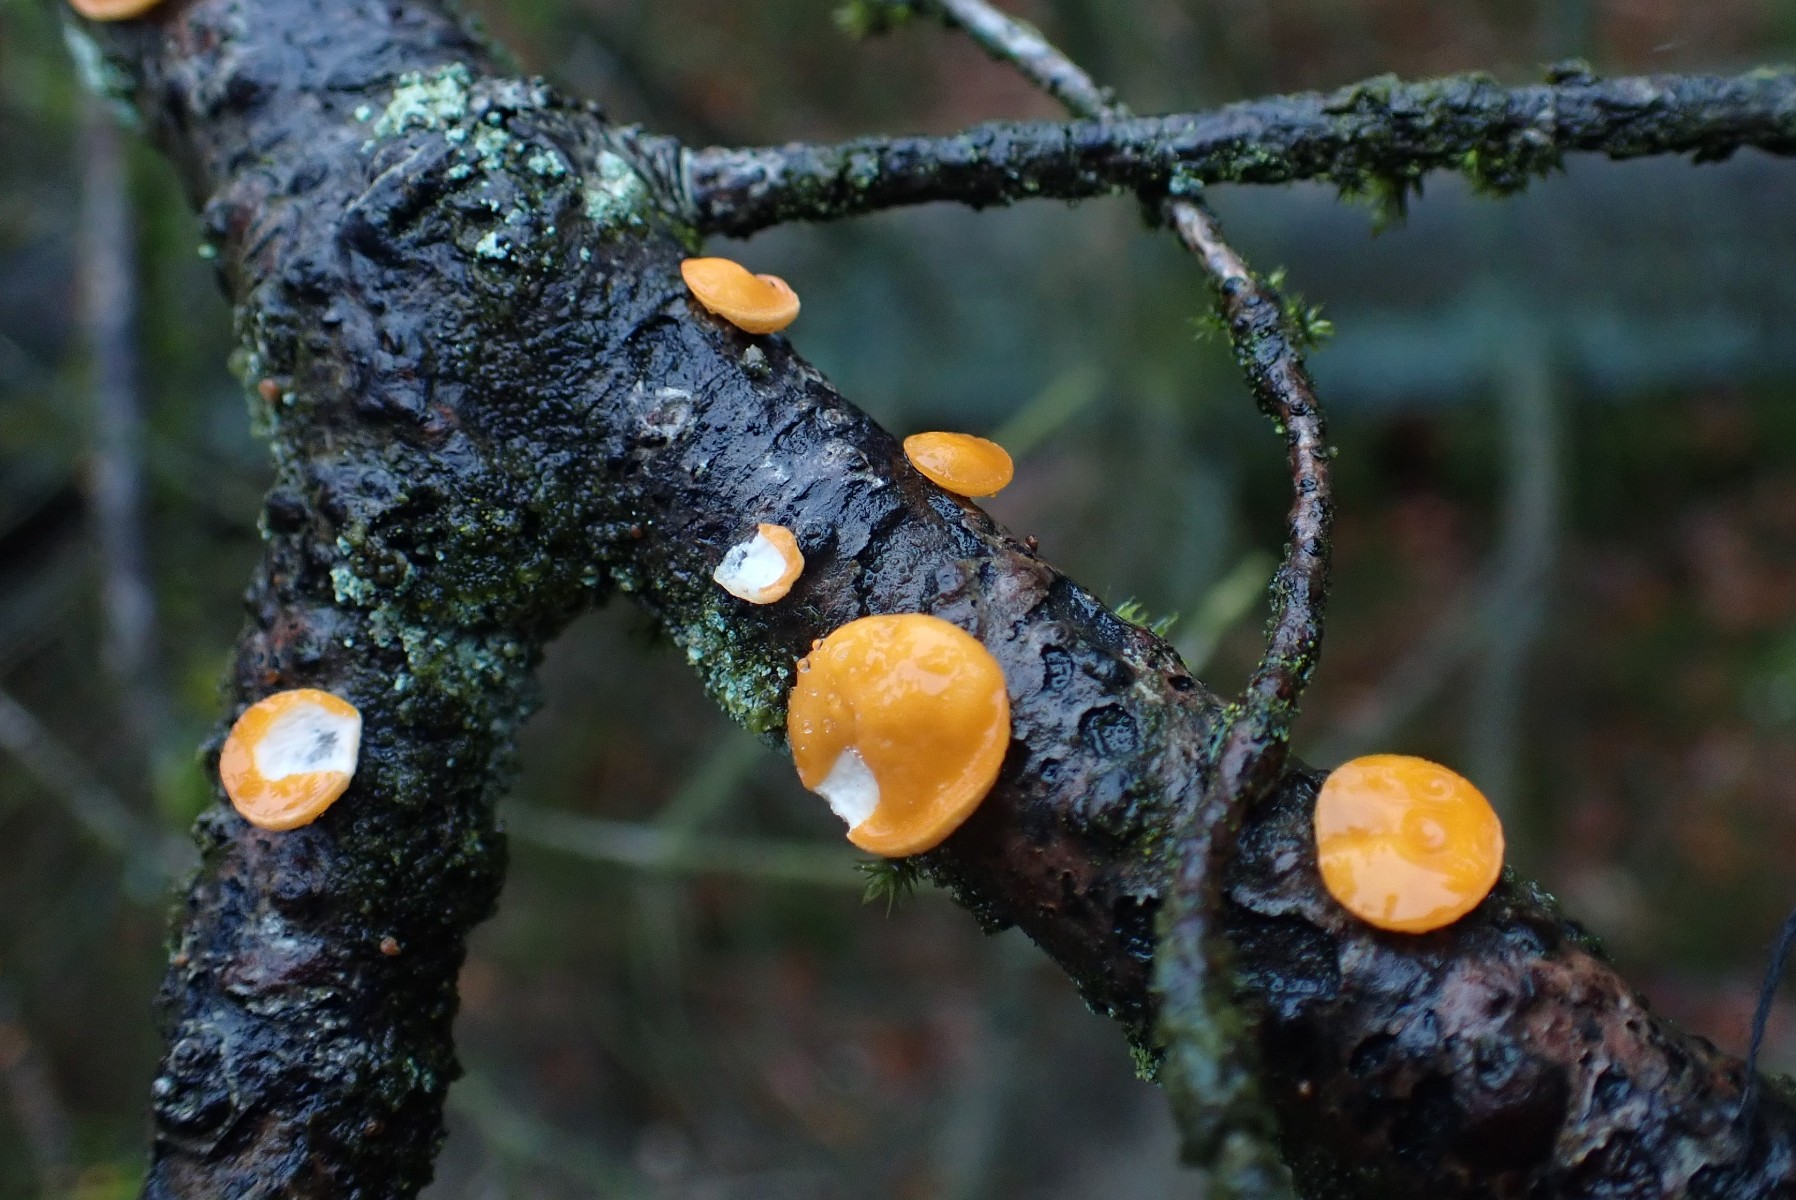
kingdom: Fungi
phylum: Ascomycota
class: Pezizomycetes
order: Pezizales
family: Sarcoscyphaceae
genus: Pithya
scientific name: Pithya vulgaris
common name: stor dukatbæger
